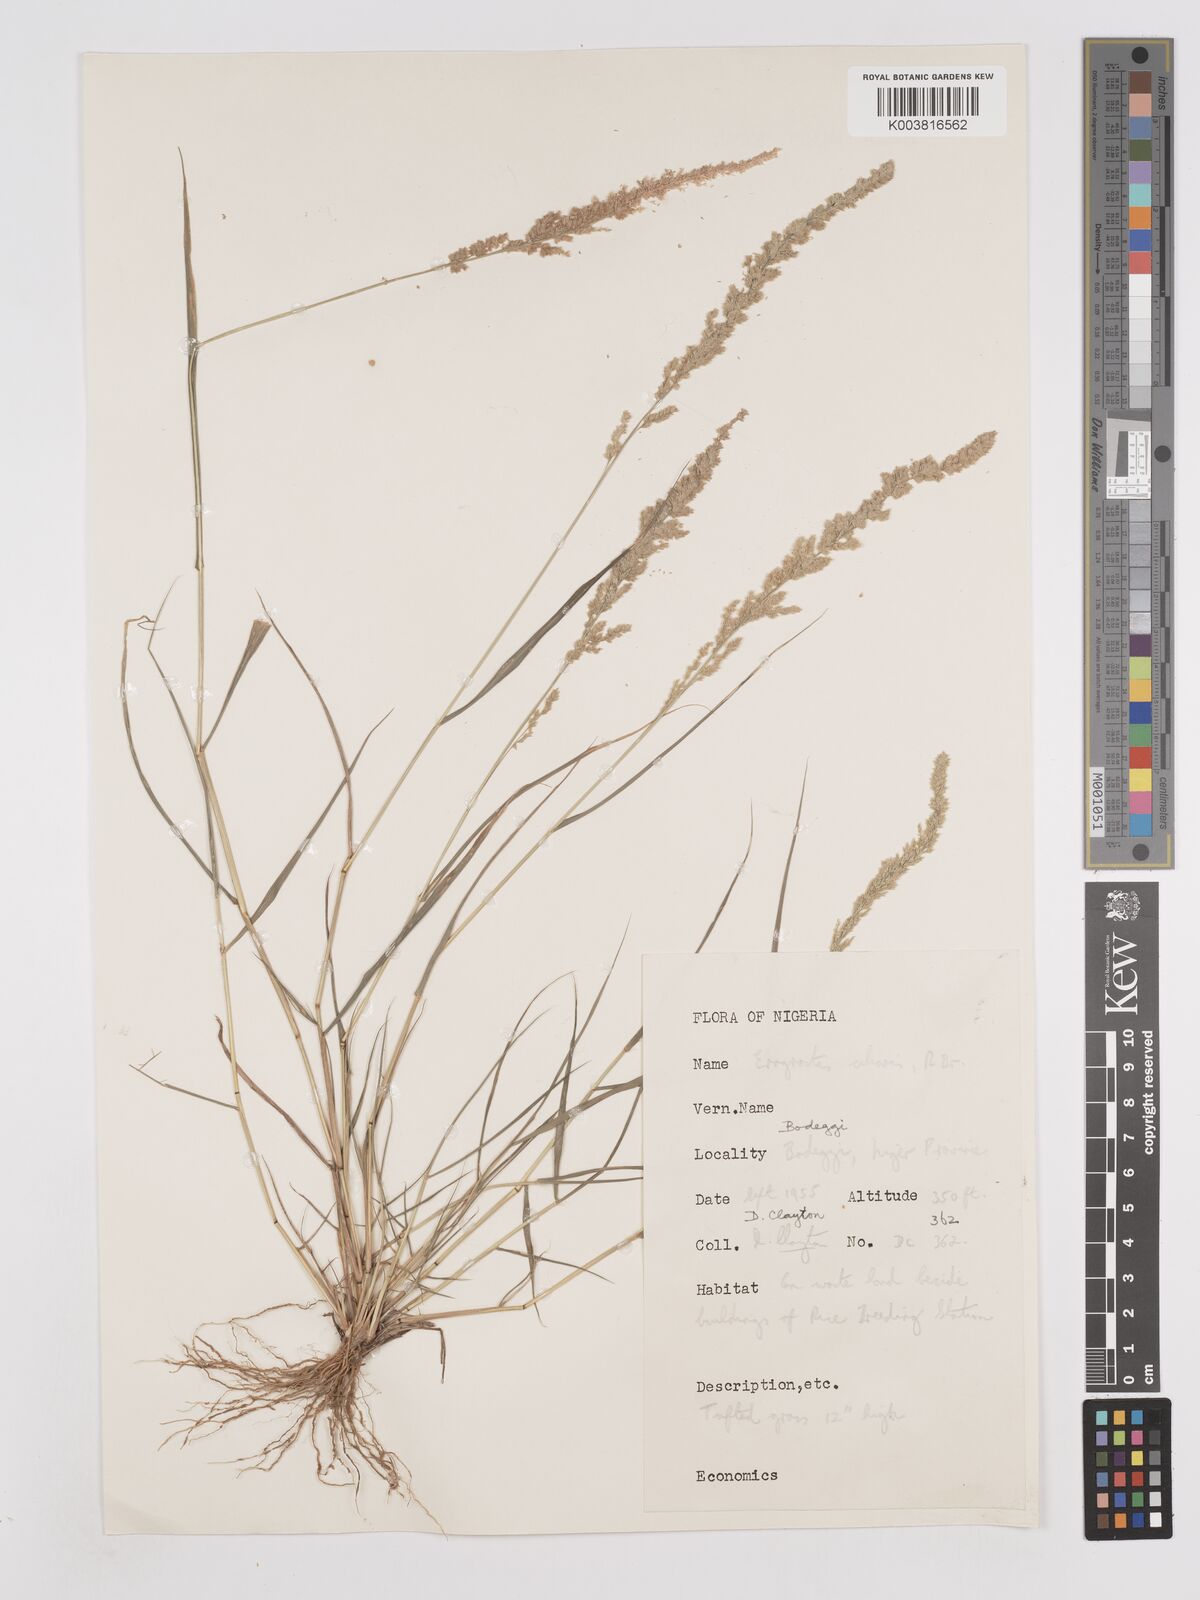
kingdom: Plantae
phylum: Tracheophyta
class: Liliopsida
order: Poales
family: Poaceae
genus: Eragrostis
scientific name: Eragrostis ciliaris
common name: Gophertail lovegrass
